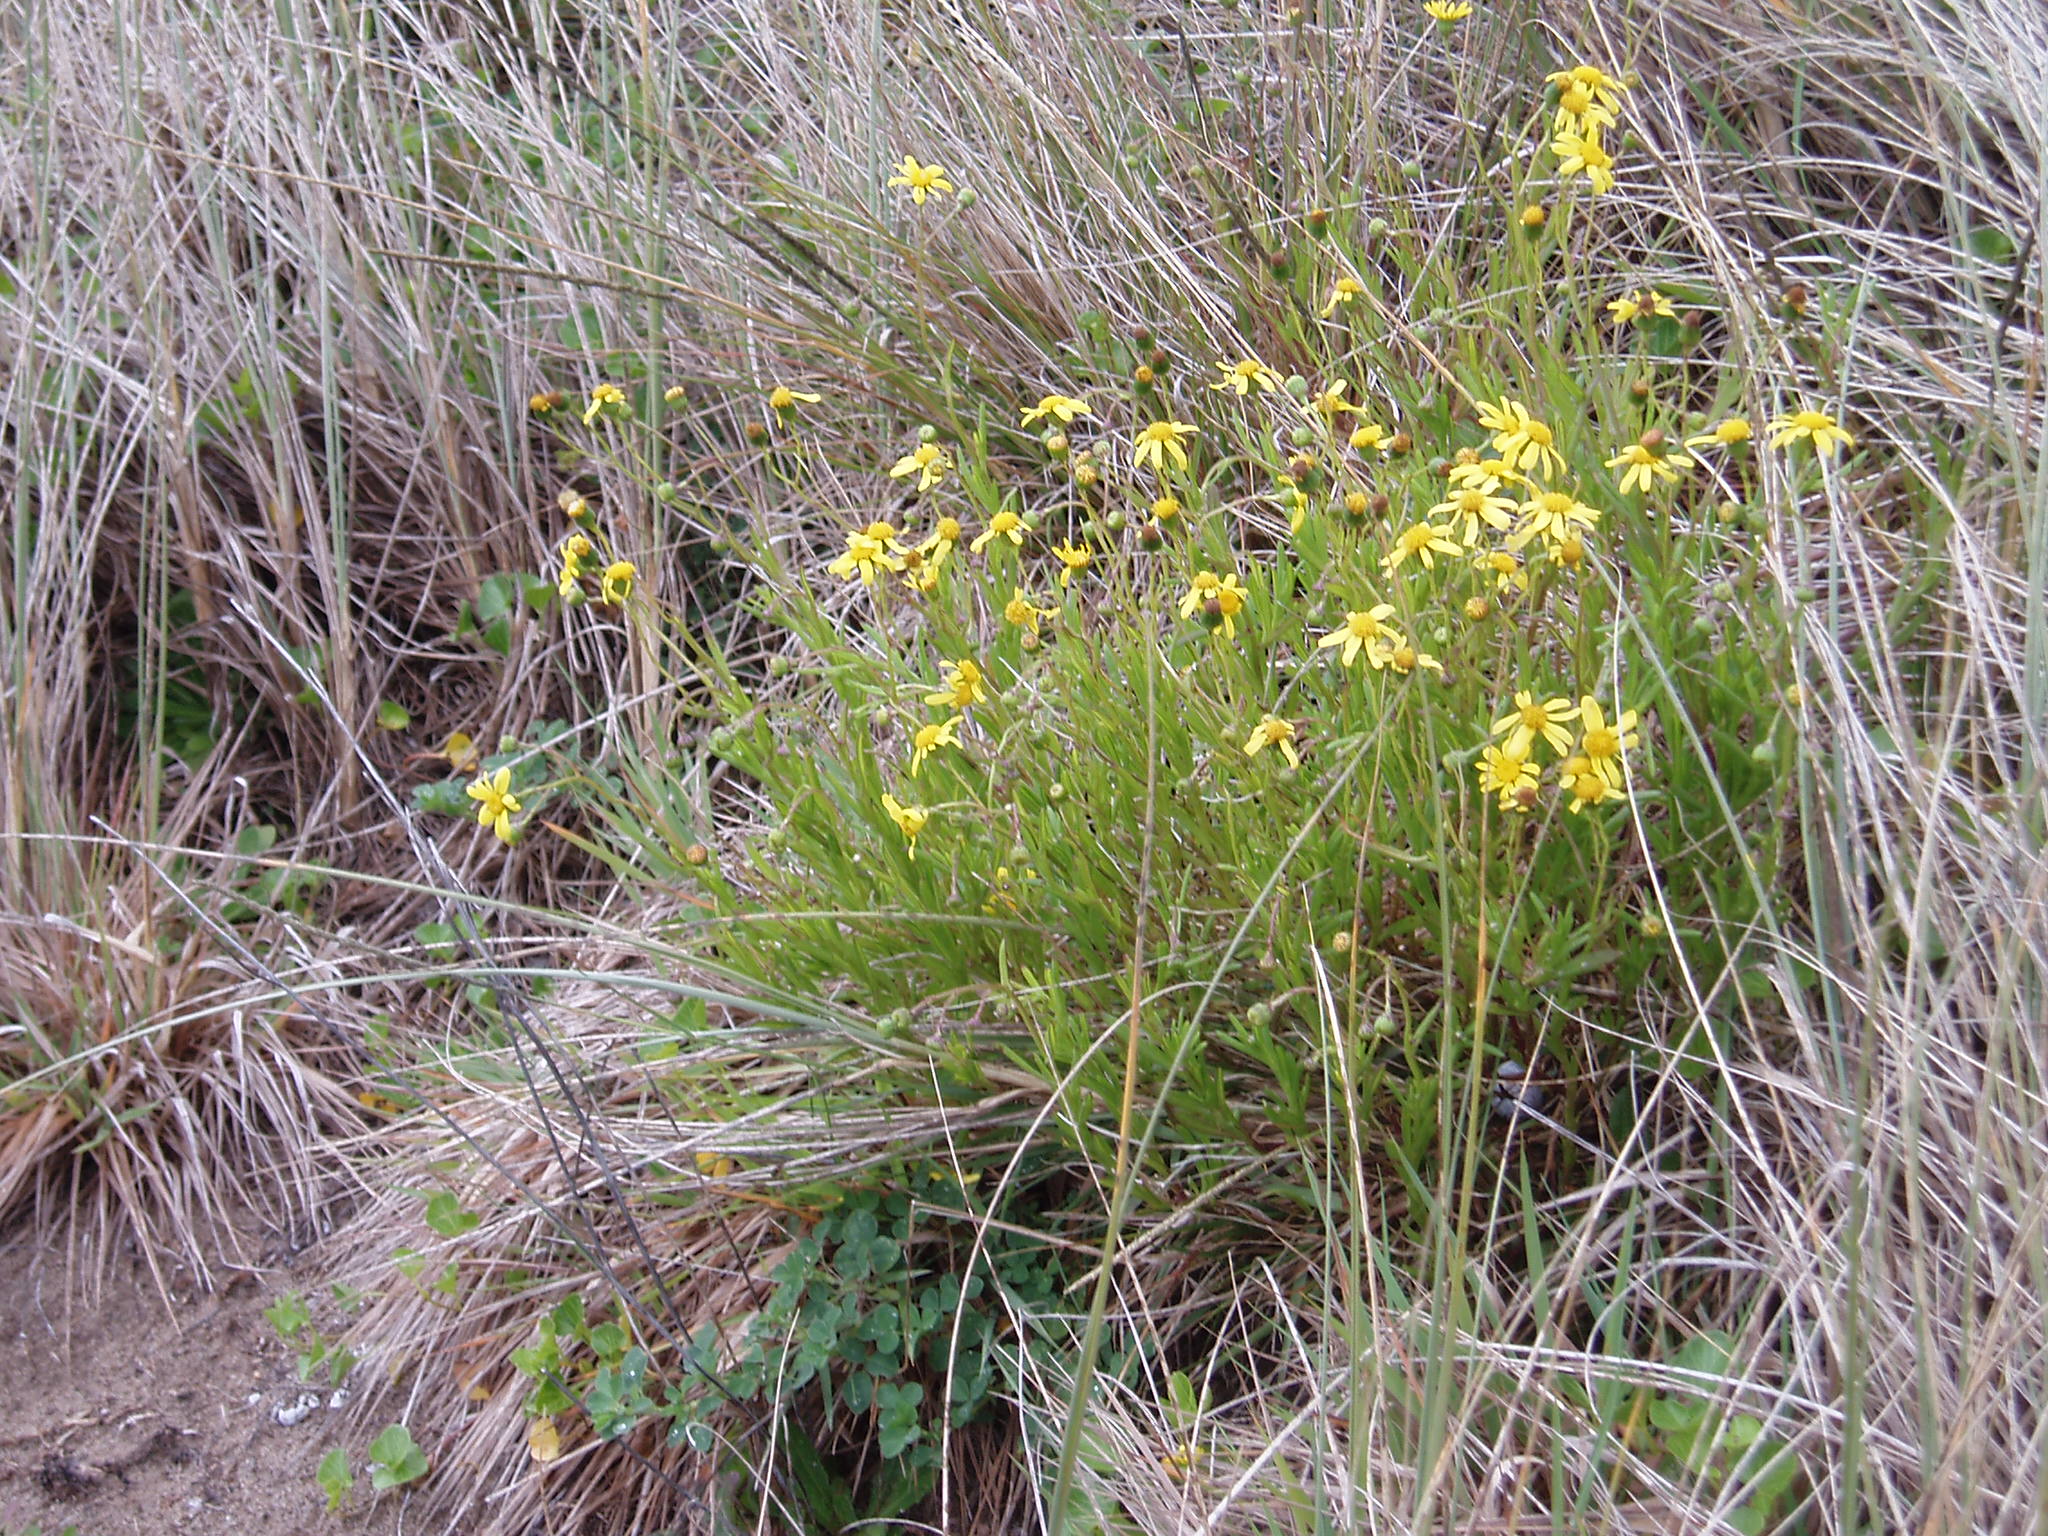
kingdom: Plantae
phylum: Tracheophyta
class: Magnoliopsida
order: Asterales
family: Asteraceae
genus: Senecio
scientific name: Senecio skirrhodon
